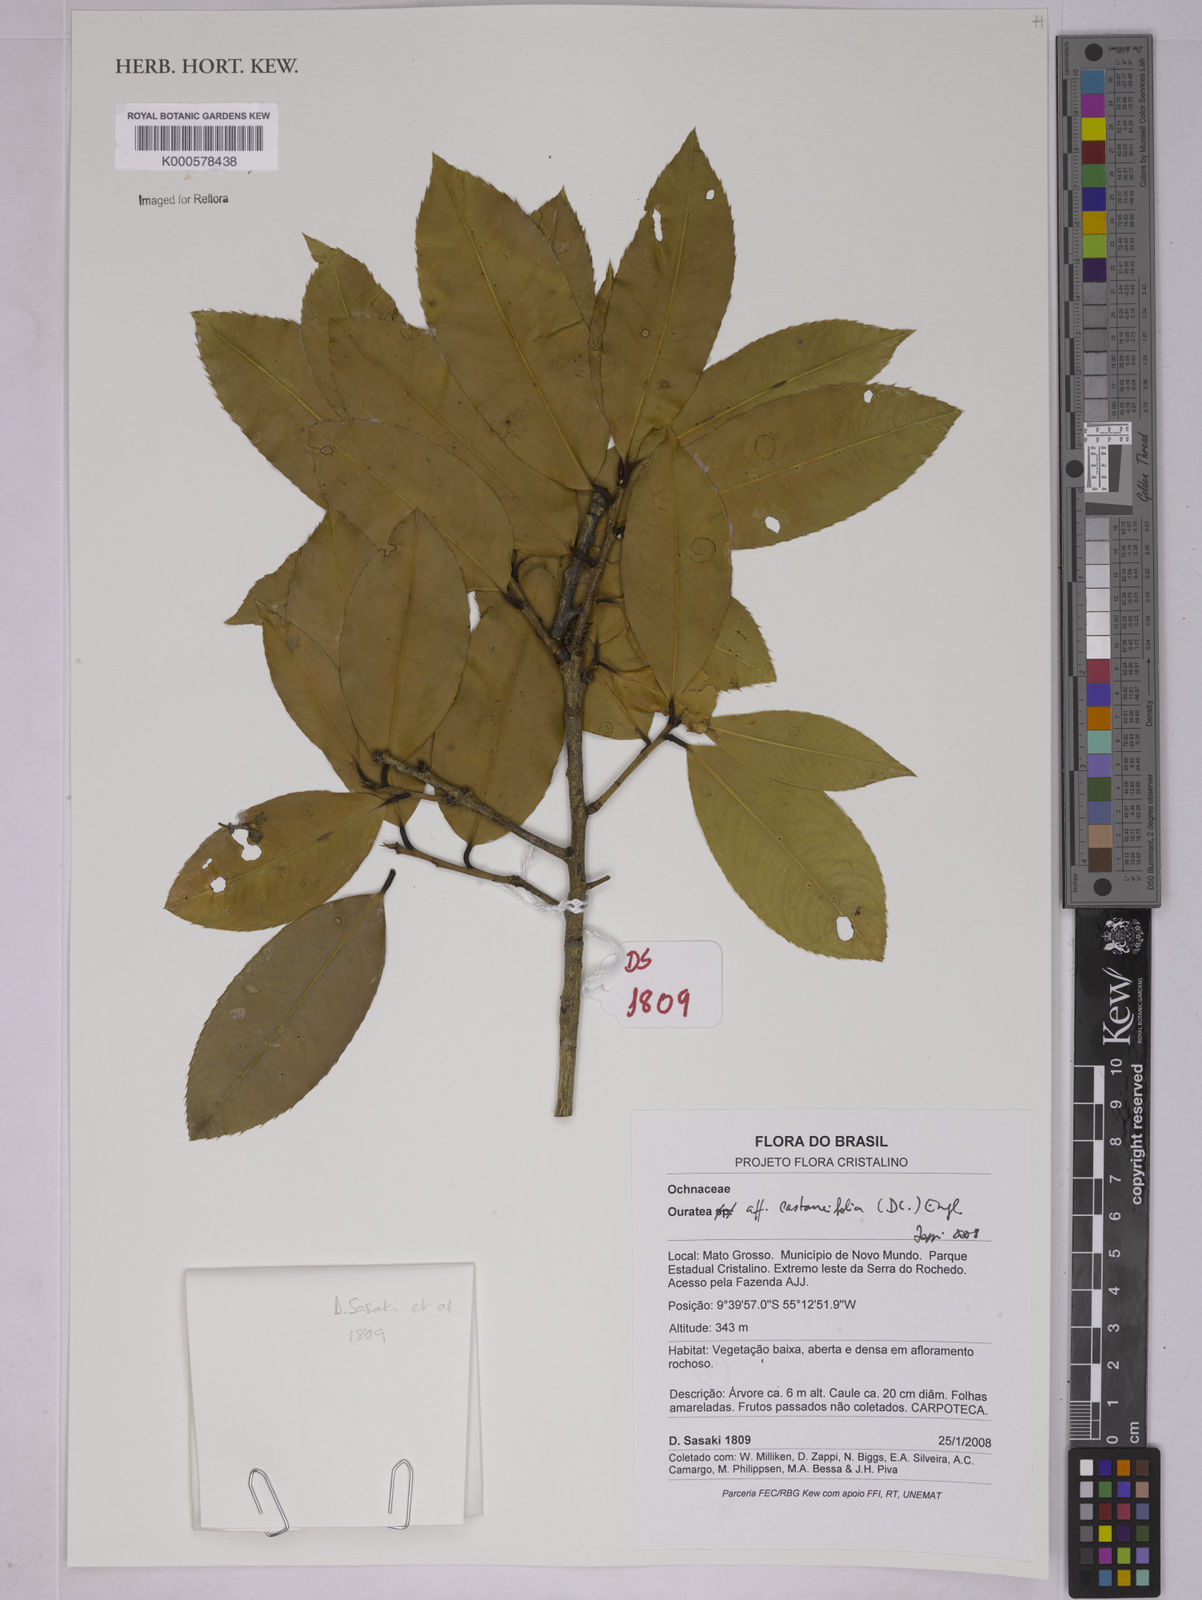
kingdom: Plantae
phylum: Tracheophyta
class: Magnoliopsida
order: Malpighiales
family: Ochnaceae
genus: Ouratea
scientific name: Ouratea castaneifolia
